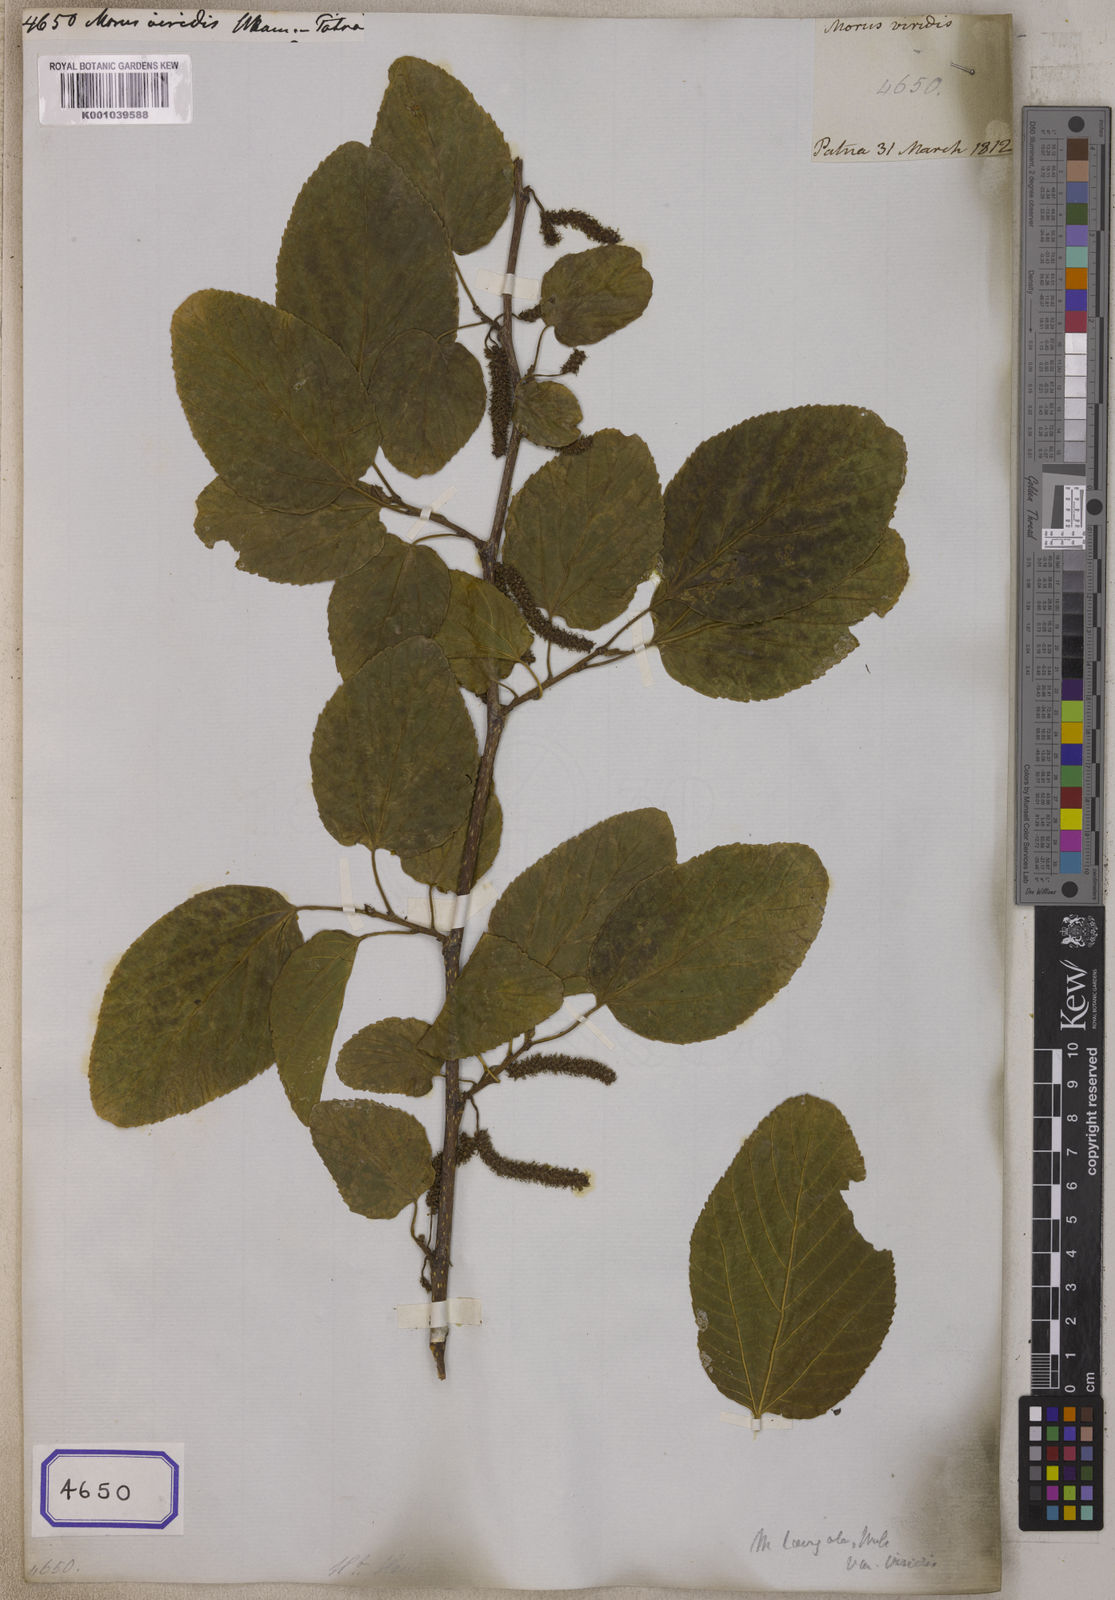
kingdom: Plantae
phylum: Tracheophyta
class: Magnoliopsida
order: Rosales
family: Moraceae
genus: Morus
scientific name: Morus macroura
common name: Himalayan mulberry
